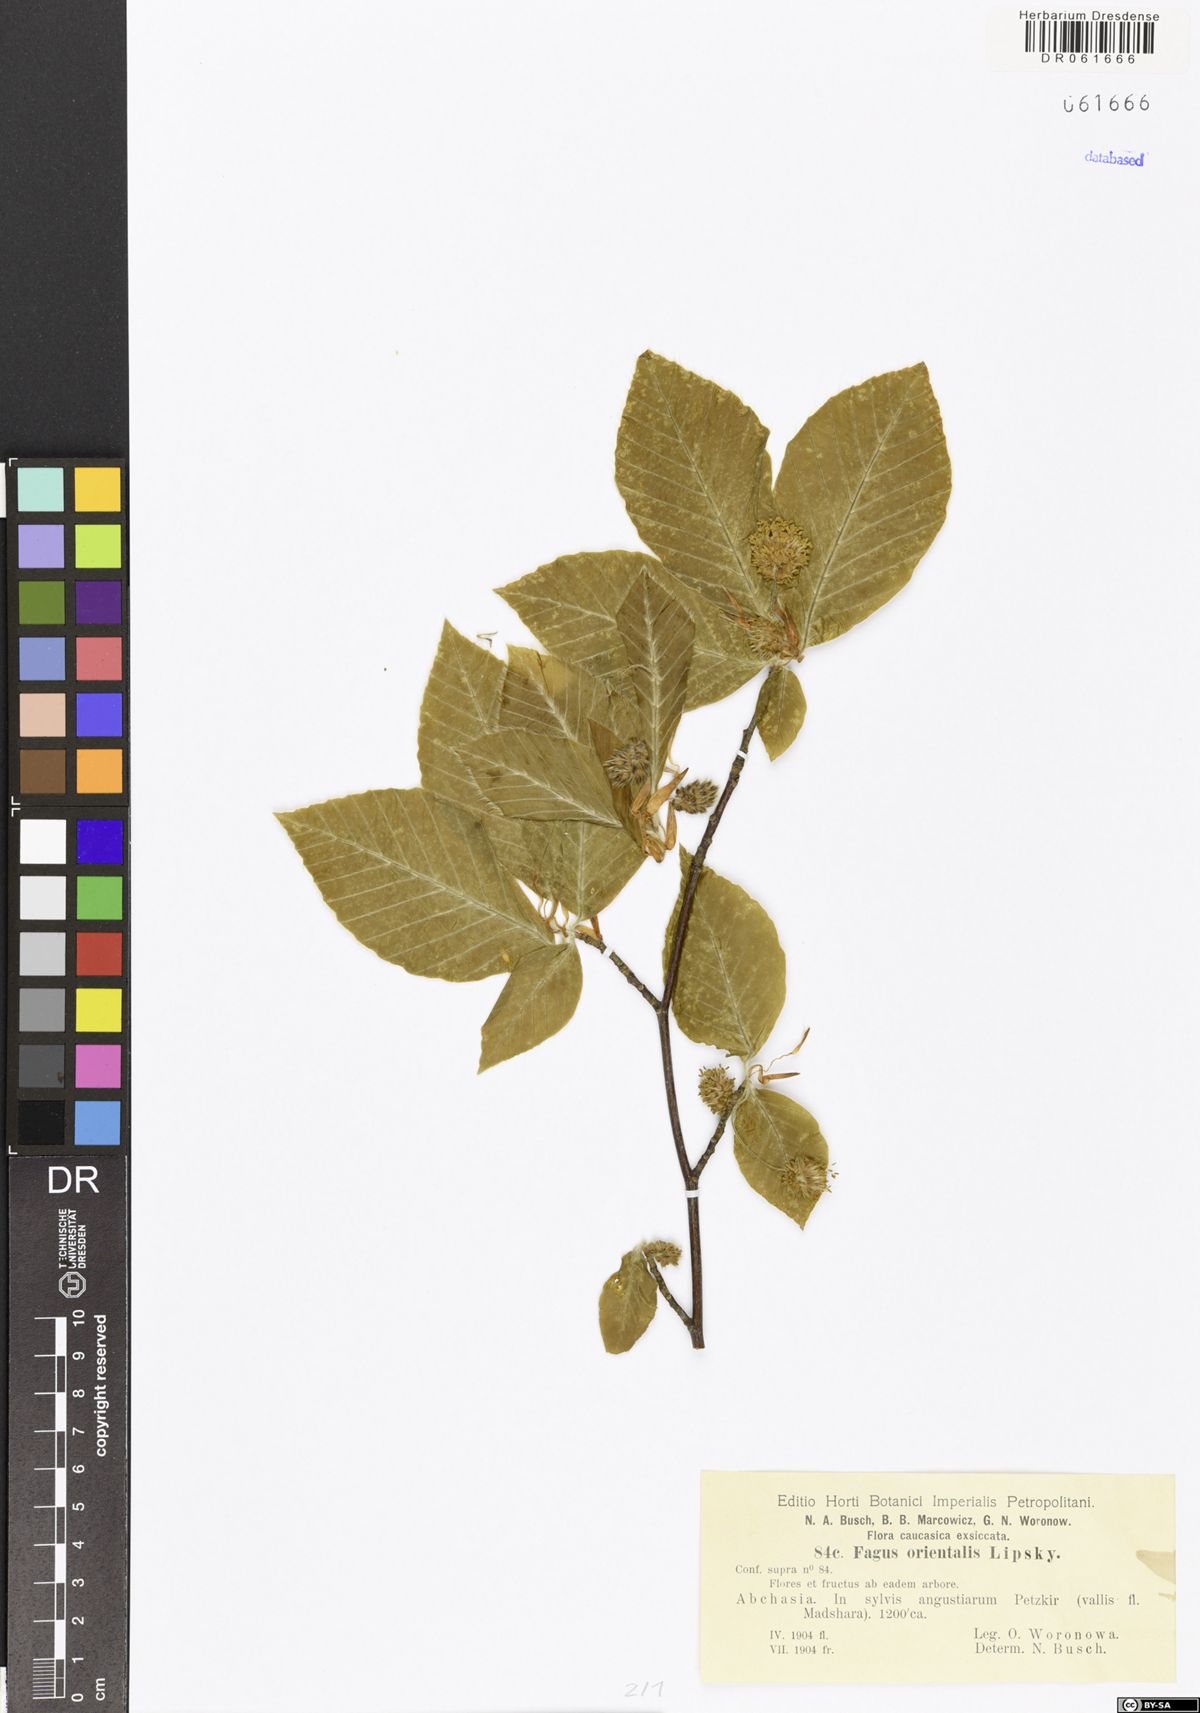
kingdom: Plantae
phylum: Tracheophyta
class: Magnoliopsida
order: Fagales
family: Fagaceae
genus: Fagus
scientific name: Fagus orientalis
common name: Oriental beech
